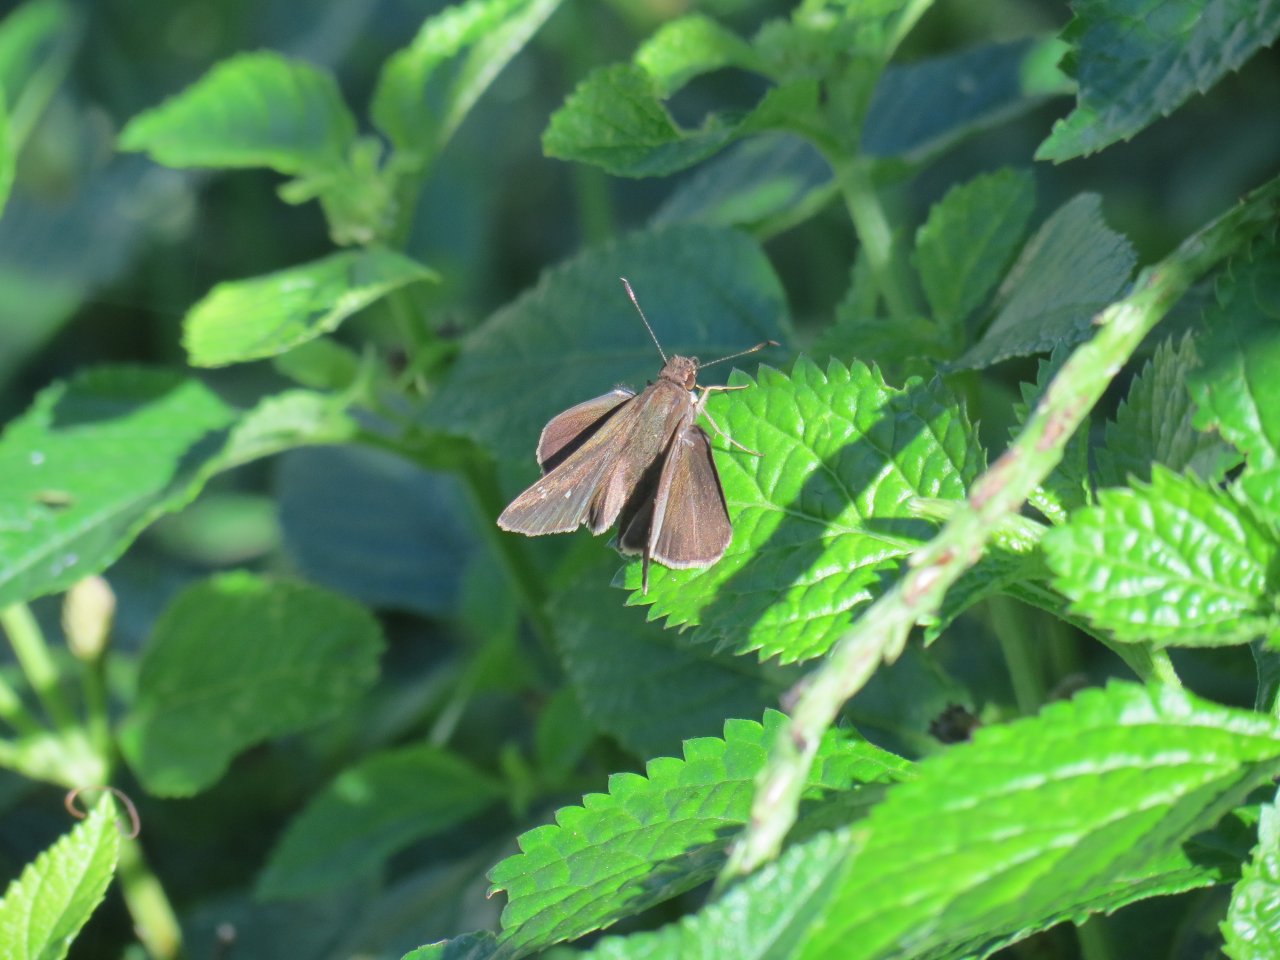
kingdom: Animalia
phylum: Arthropoda
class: Insecta
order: Lepidoptera
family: Hesperiidae
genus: Lerema
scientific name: Lerema accius
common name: Clouded Skipper
